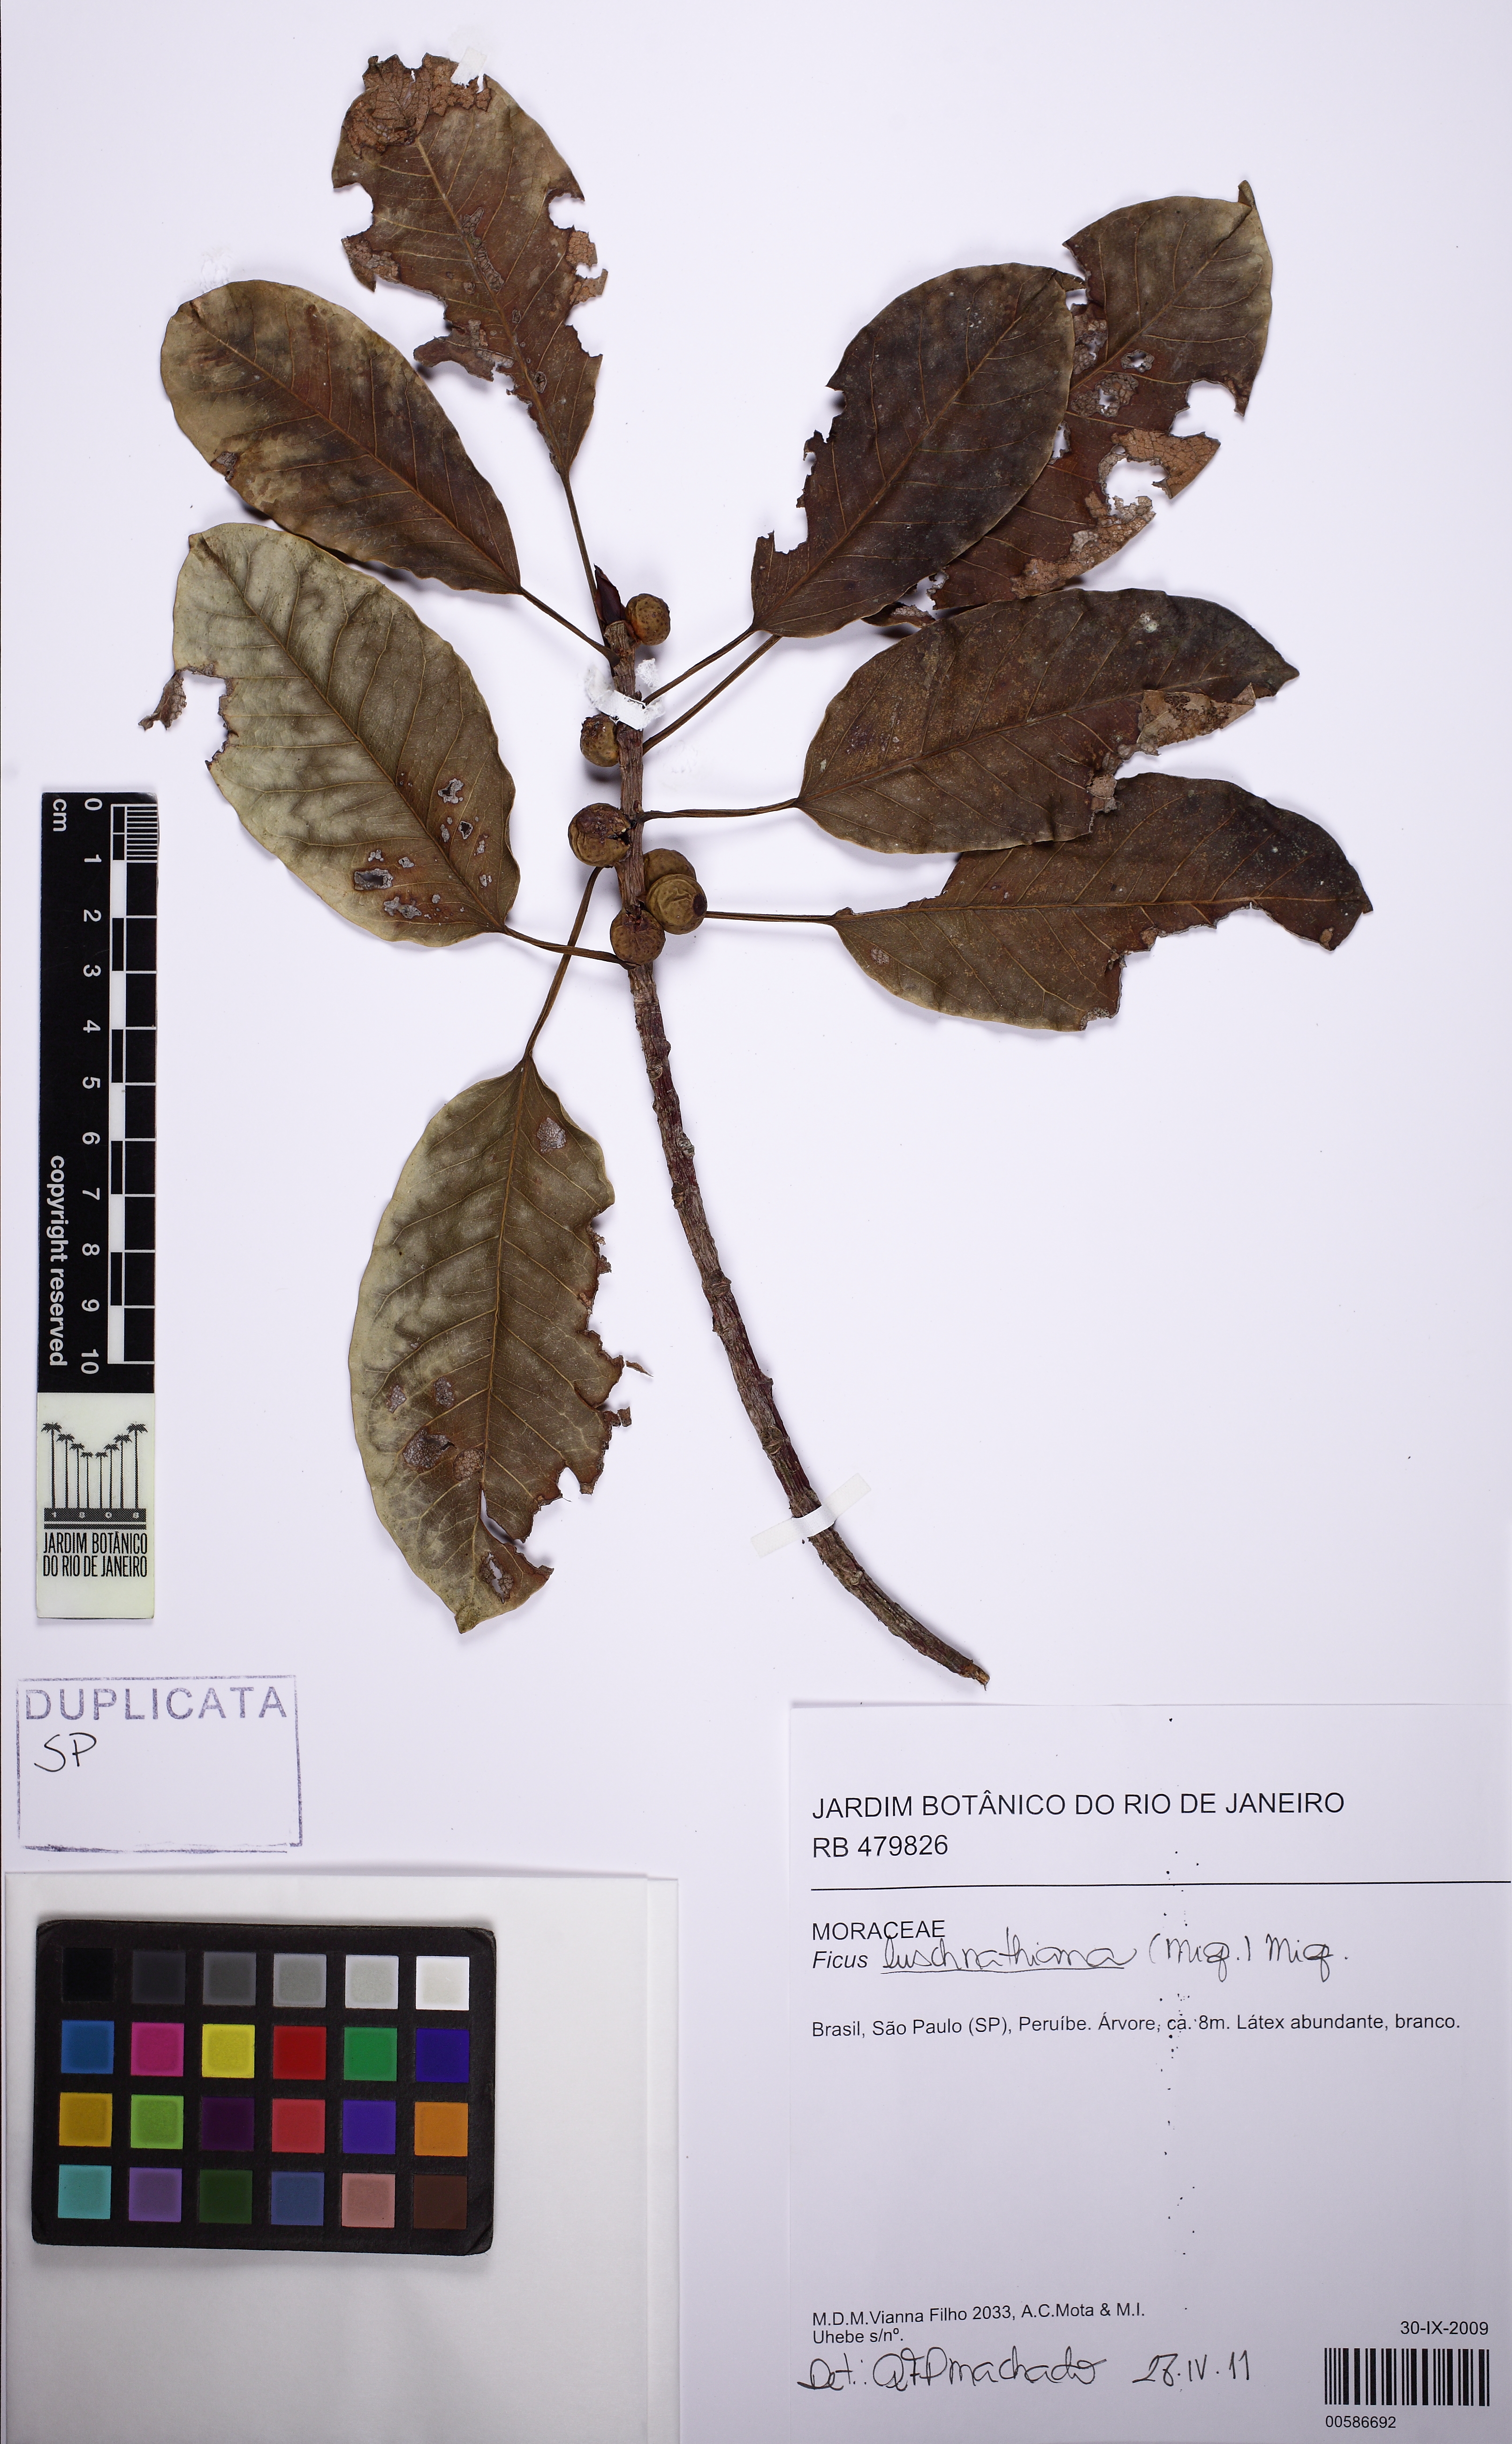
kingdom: Plantae
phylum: Tracheophyta
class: Magnoliopsida
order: Rosales
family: Moraceae
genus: Ficus
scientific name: Ficus luschnathiana
